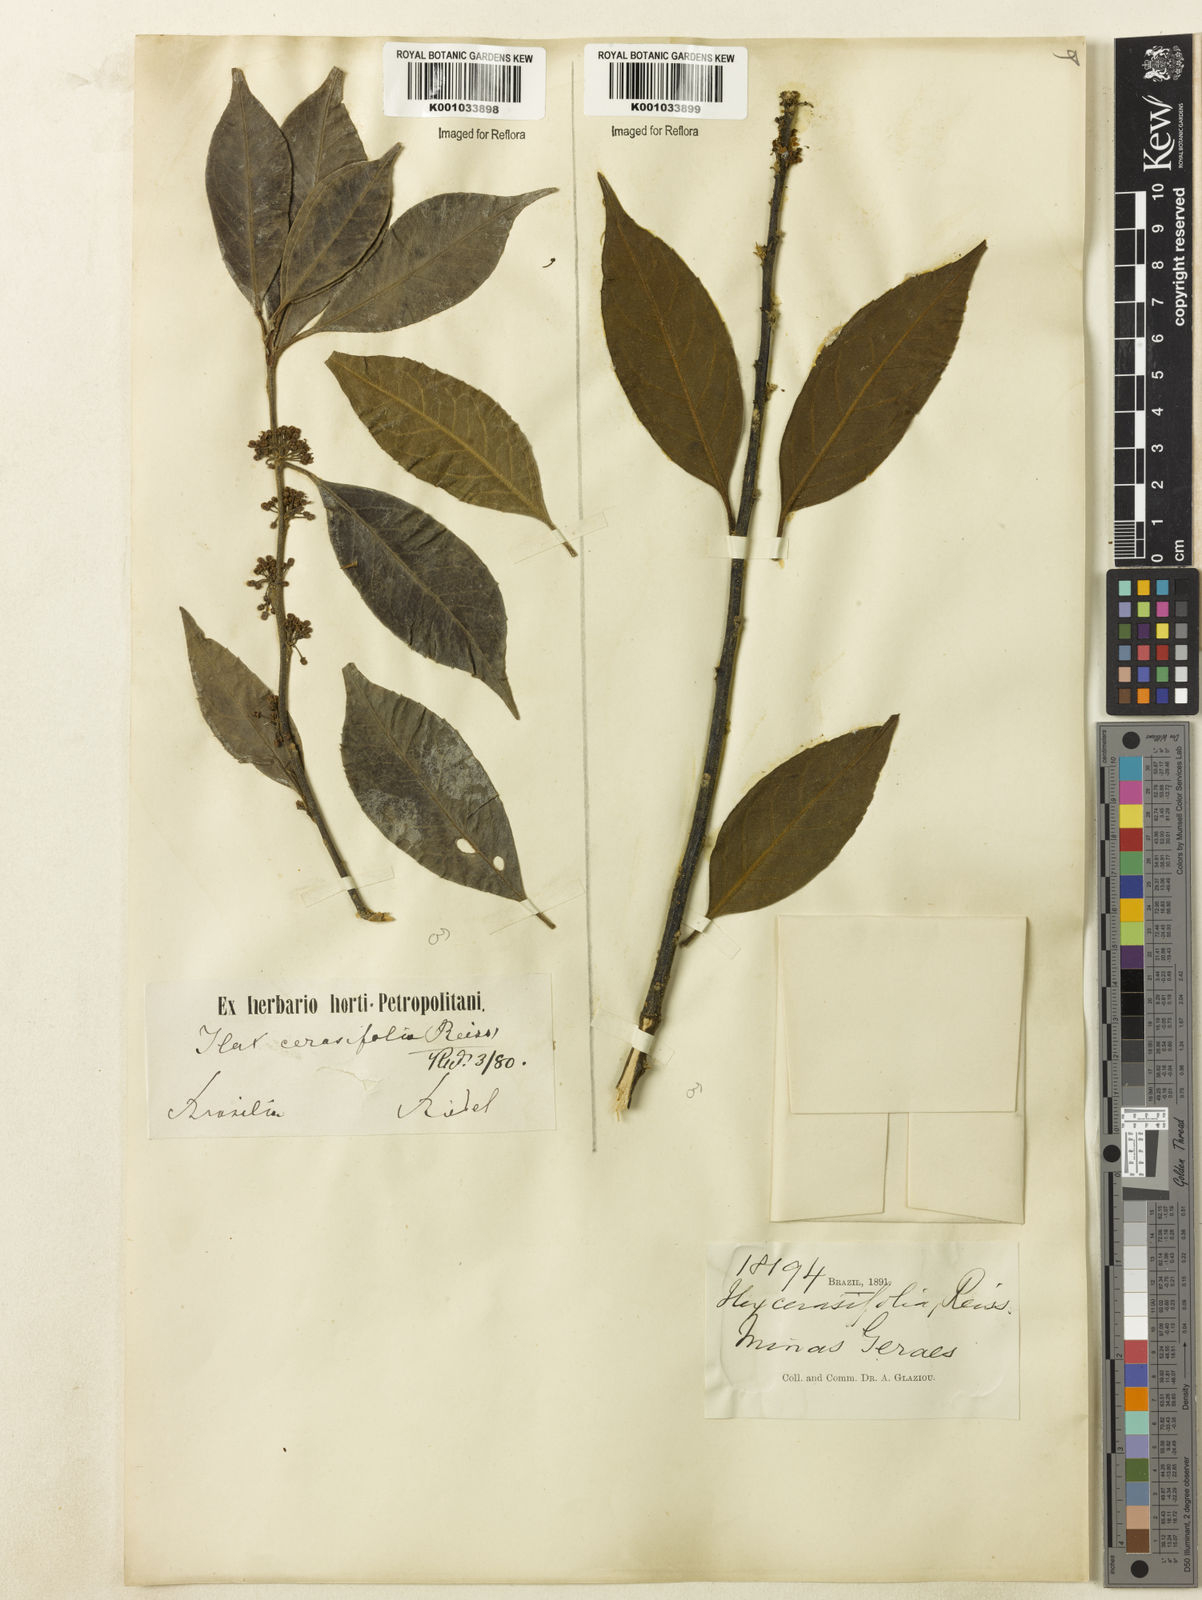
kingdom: Plantae
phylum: Tracheophyta
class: Magnoliopsida
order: Aquifoliales
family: Aquifoliaceae
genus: Ilex
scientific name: Ilex cerasifolia
